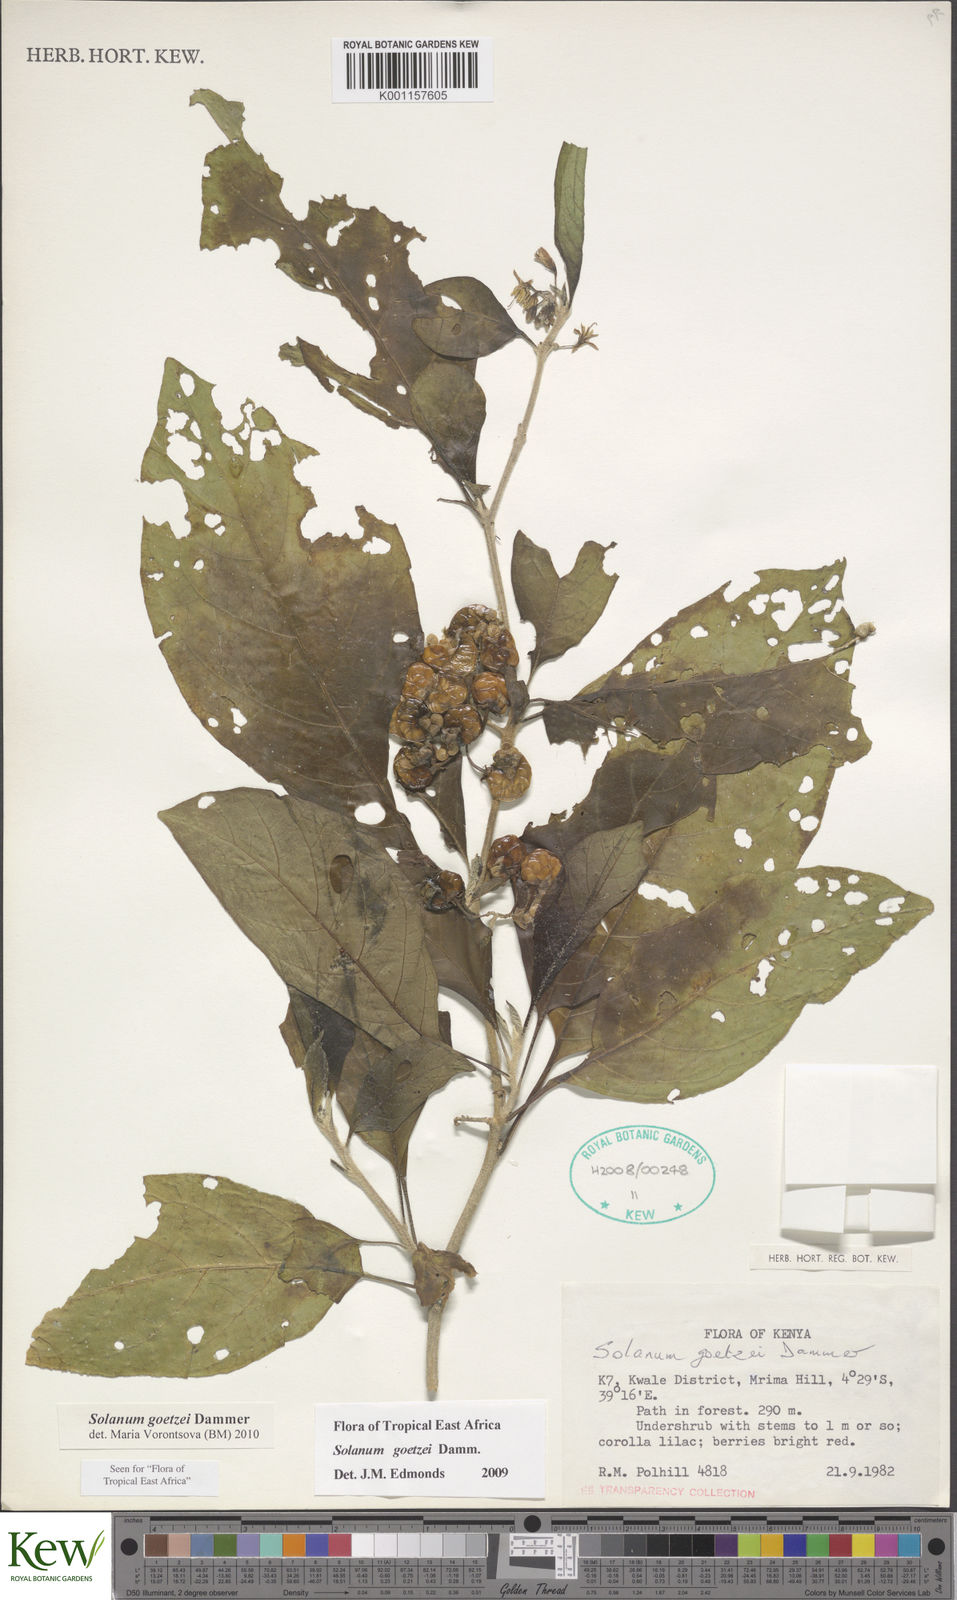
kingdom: Plantae
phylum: Tracheophyta
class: Magnoliopsida
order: Solanales
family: Solanaceae
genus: Solanum
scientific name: Solanum goetzei
